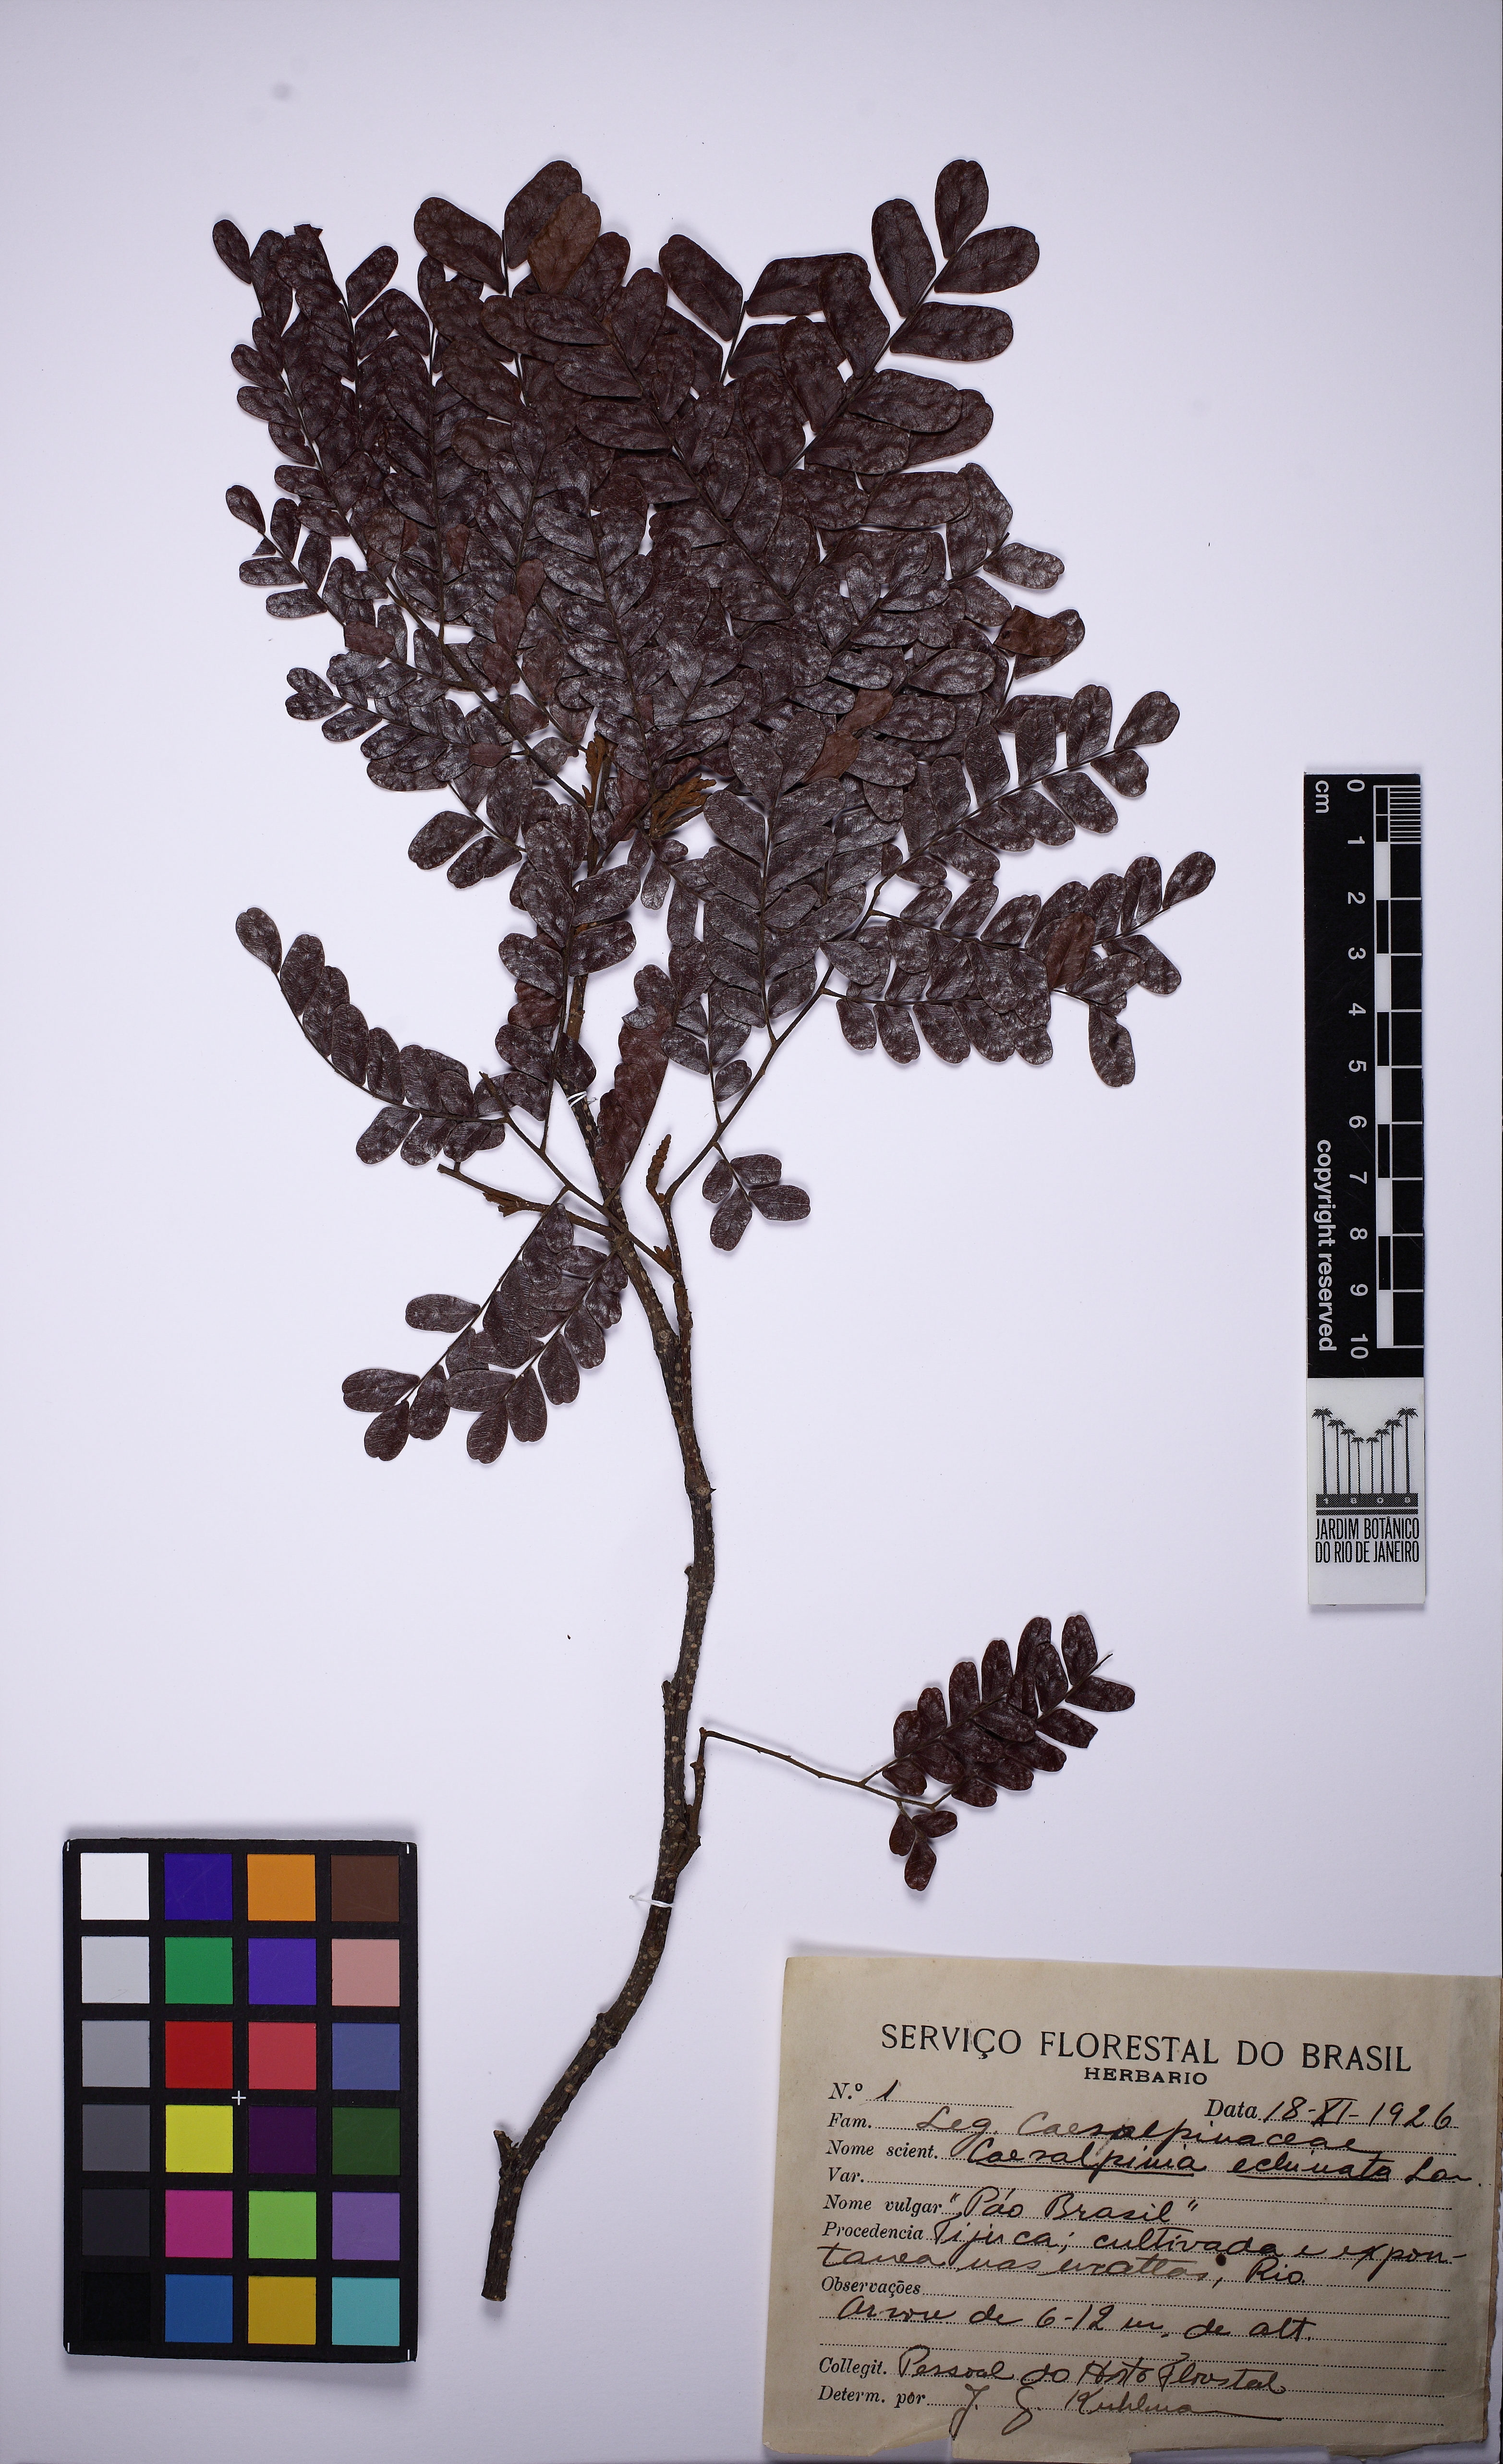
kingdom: Plantae
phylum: Tracheophyta
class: Magnoliopsida
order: Fabales
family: Fabaceae
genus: Paubrasilia
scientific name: Paubrasilia echinata
